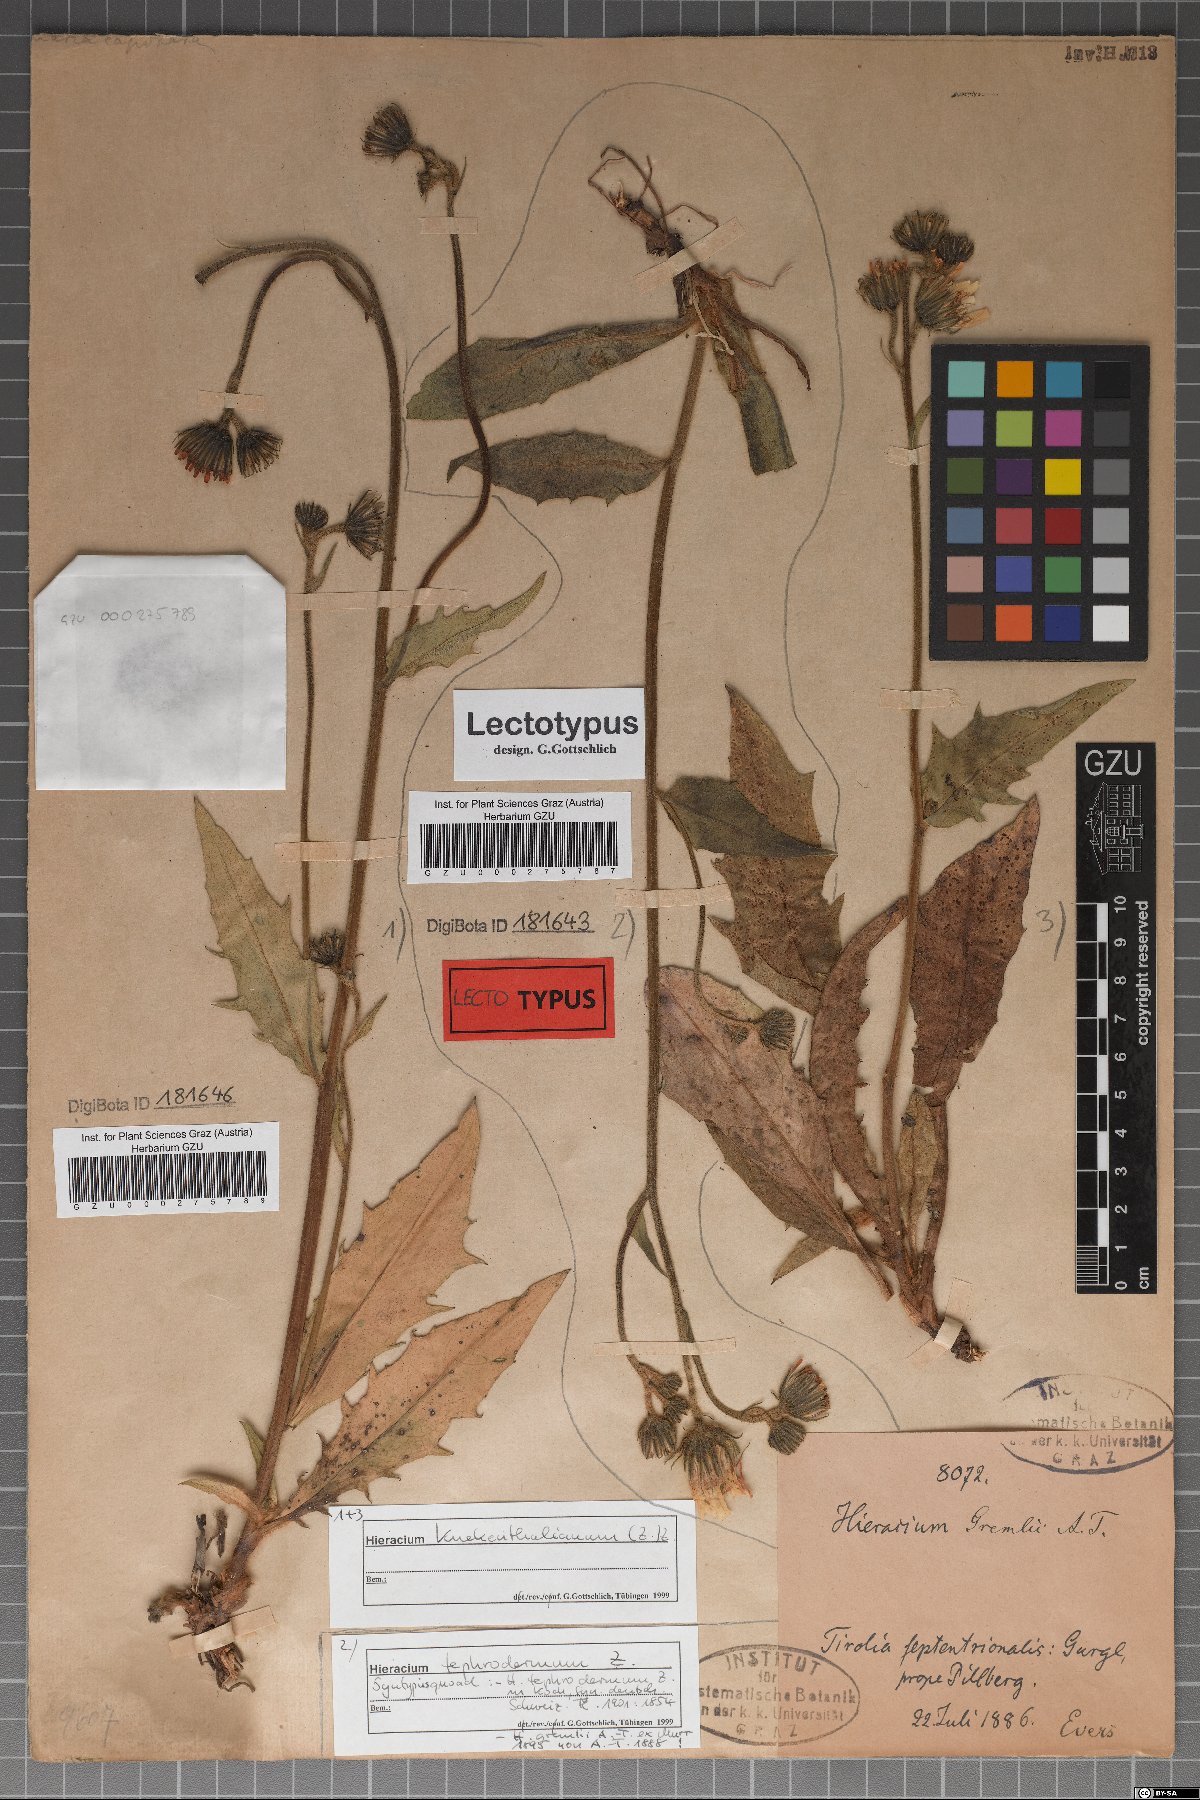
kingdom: Plantae
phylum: Tracheophyta
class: Magnoliopsida
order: Asterales
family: Asteraceae
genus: Hieracium
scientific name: Hieracium tephrodermum
